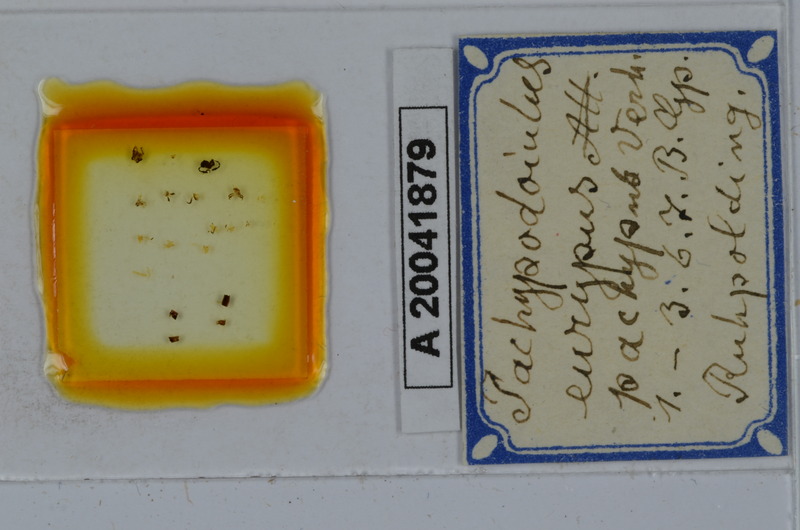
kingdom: Animalia
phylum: Arthropoda
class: Diplopoda
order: Julida
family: Julidae
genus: Pachypodoiulus
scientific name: Pachypodoiulus eurypus
